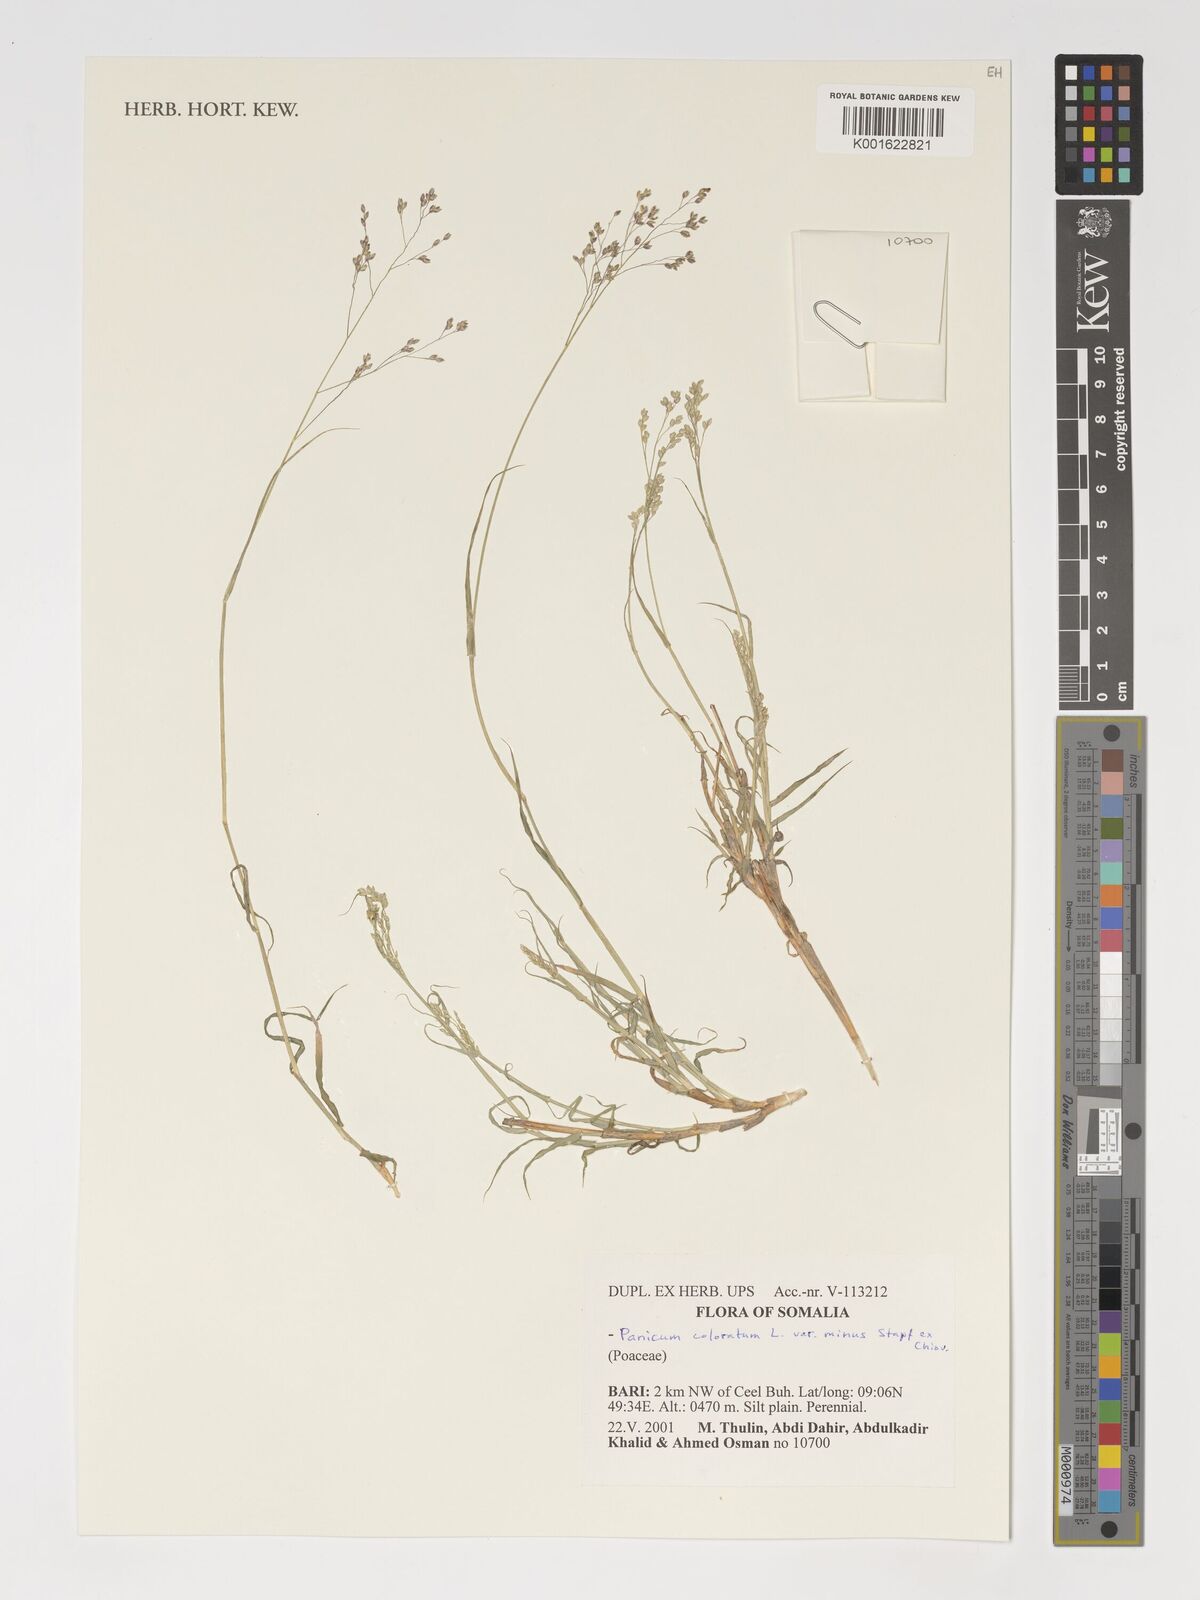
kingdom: Plantae
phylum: Tracheophyta
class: Liliopsida
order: Poales
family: Poaceae
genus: Panicum
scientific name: Panicum coloratum
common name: Kleingrass
